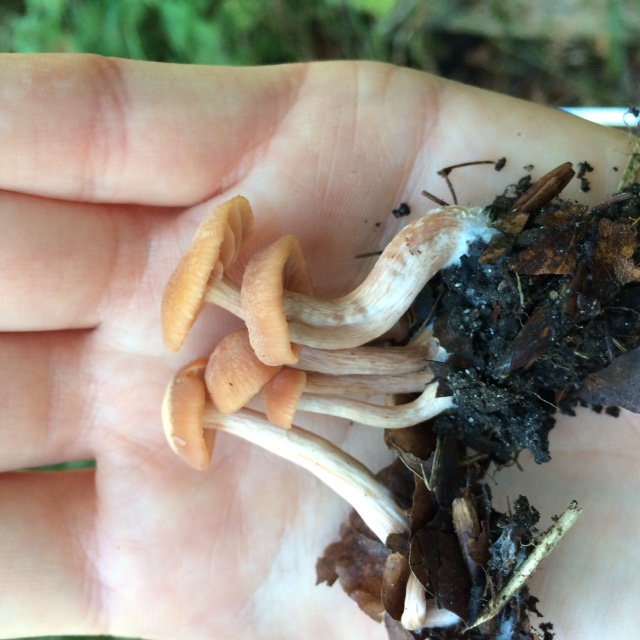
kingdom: Fungi
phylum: Basidiomycota
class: Agaricomycetes
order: Agaricales
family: Hydnangiaceae
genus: Laccaria
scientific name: Laccaria laccata
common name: rød ametysthat
